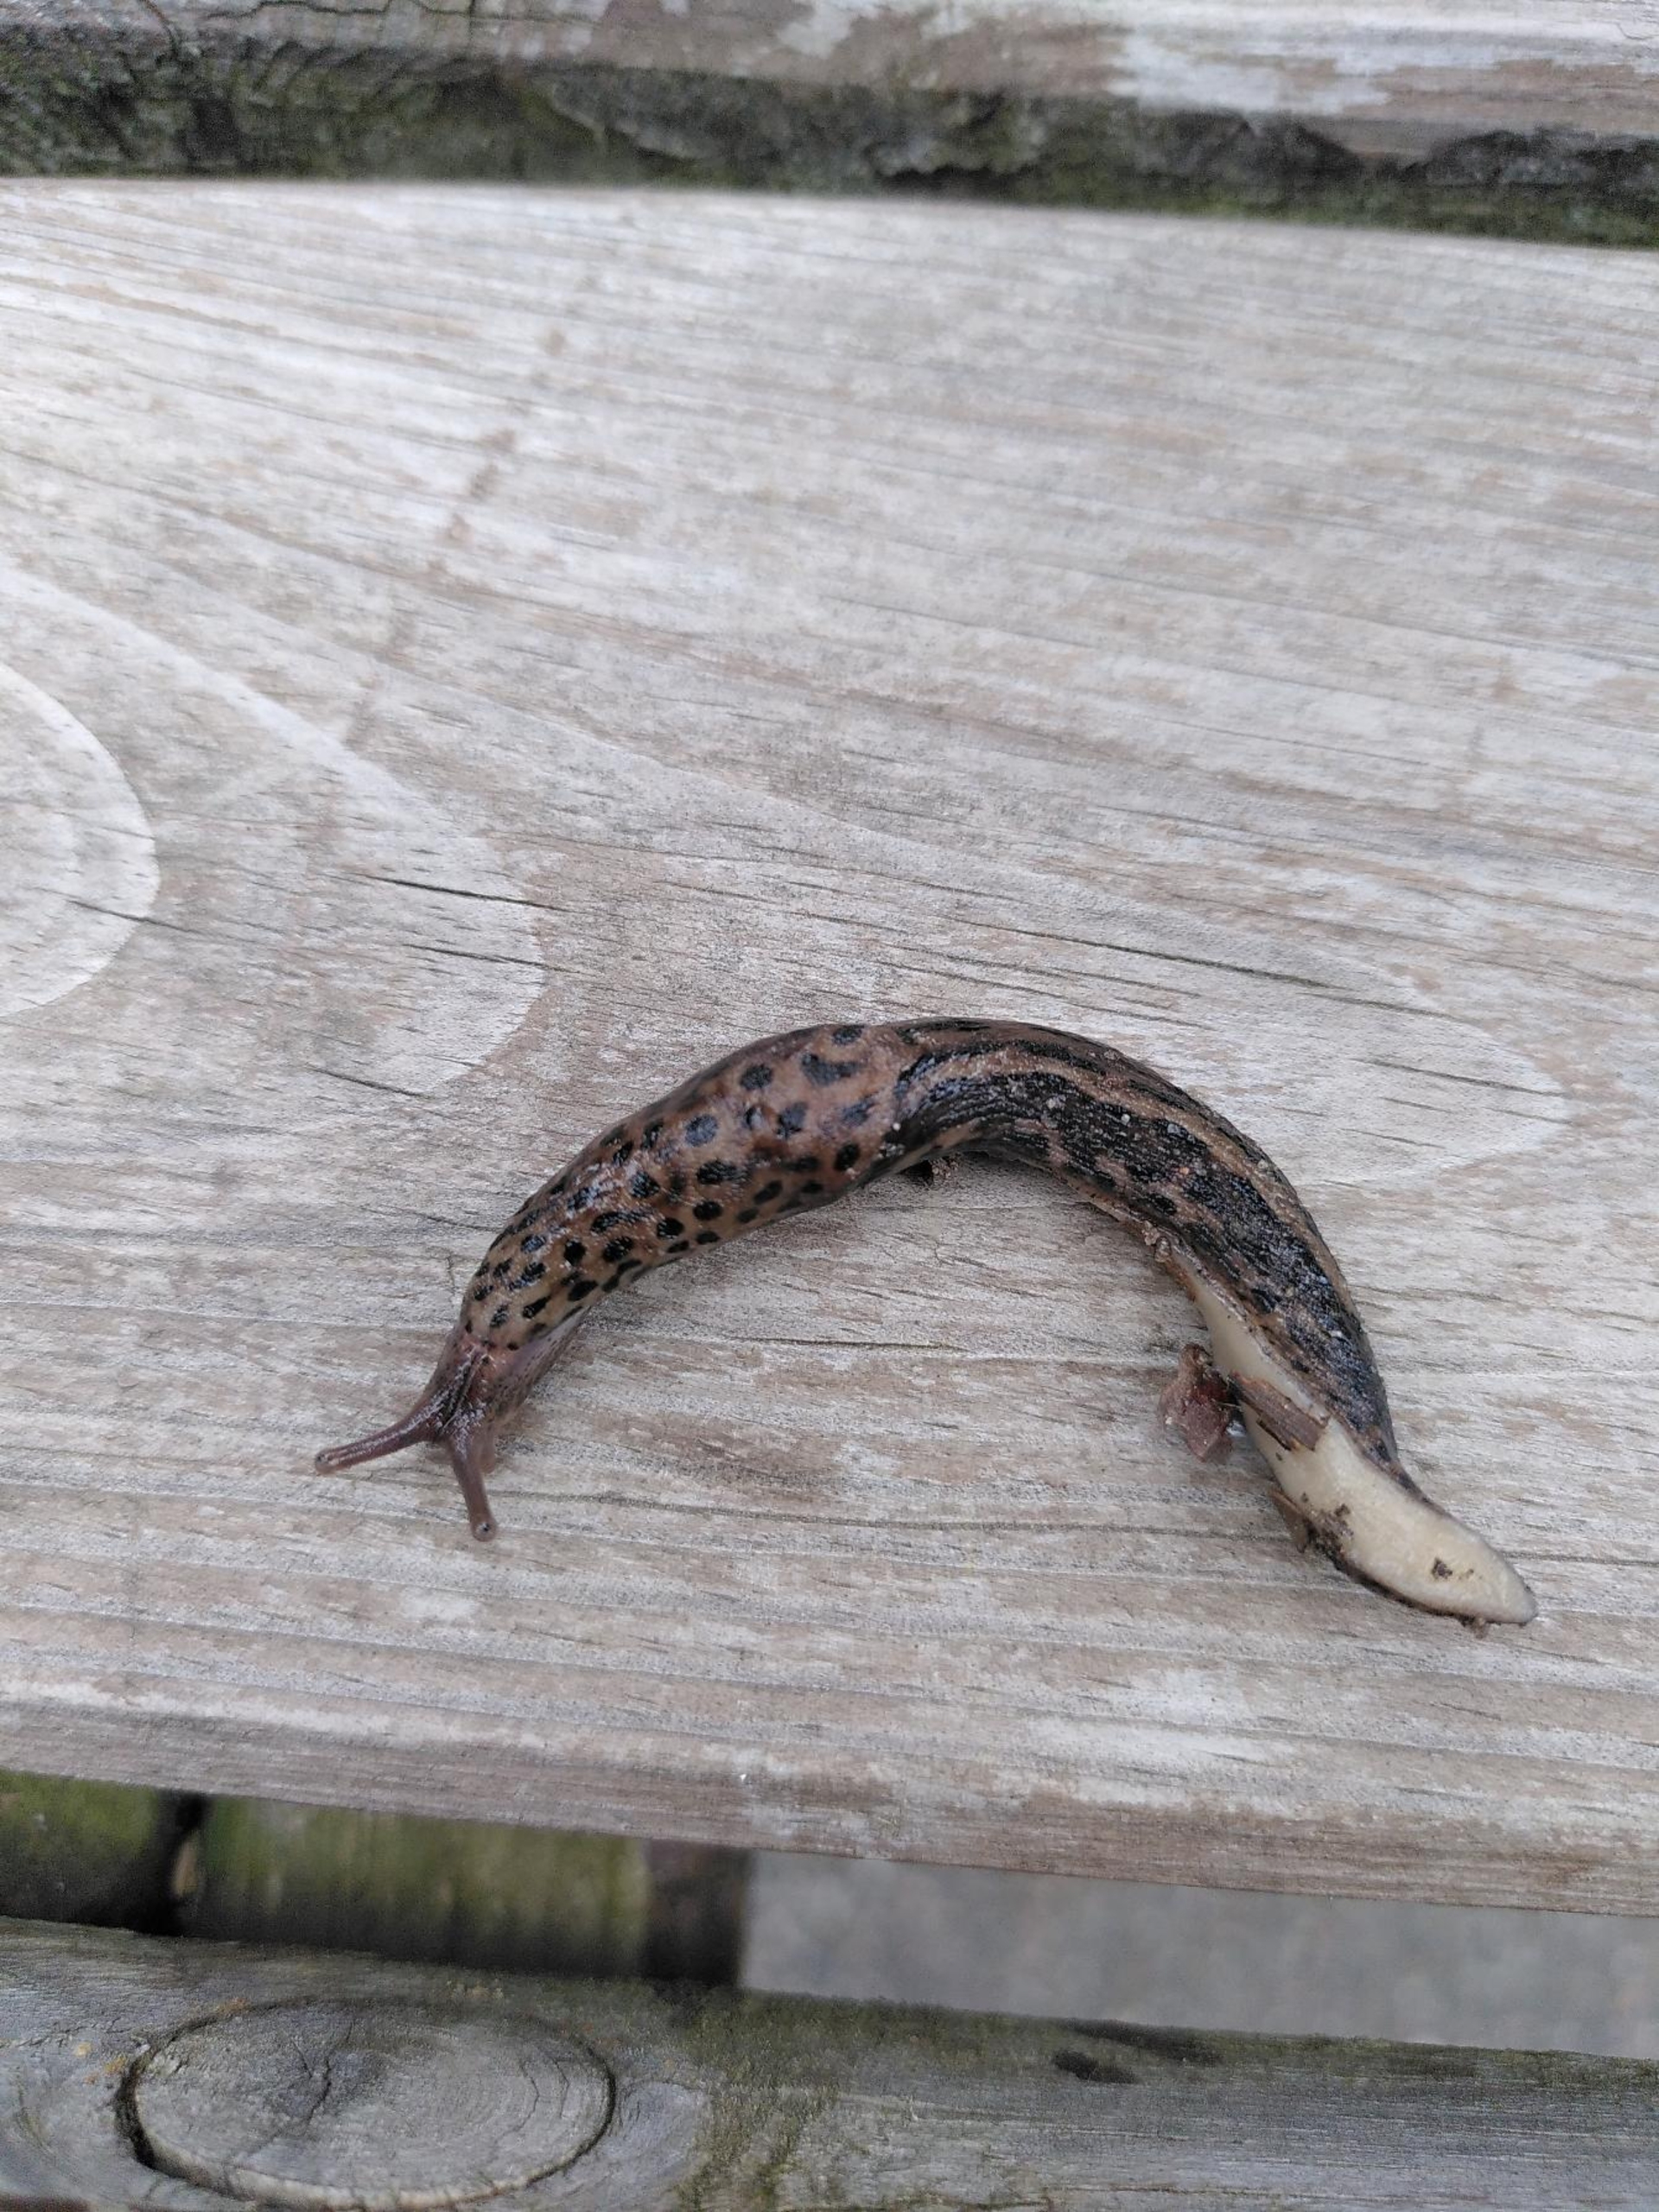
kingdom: Animalia
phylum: Mollusca
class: Gastropoda
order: Stylommatophora
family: Limacidae
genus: Limax
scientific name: Limax maximus
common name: Pantersnegl
